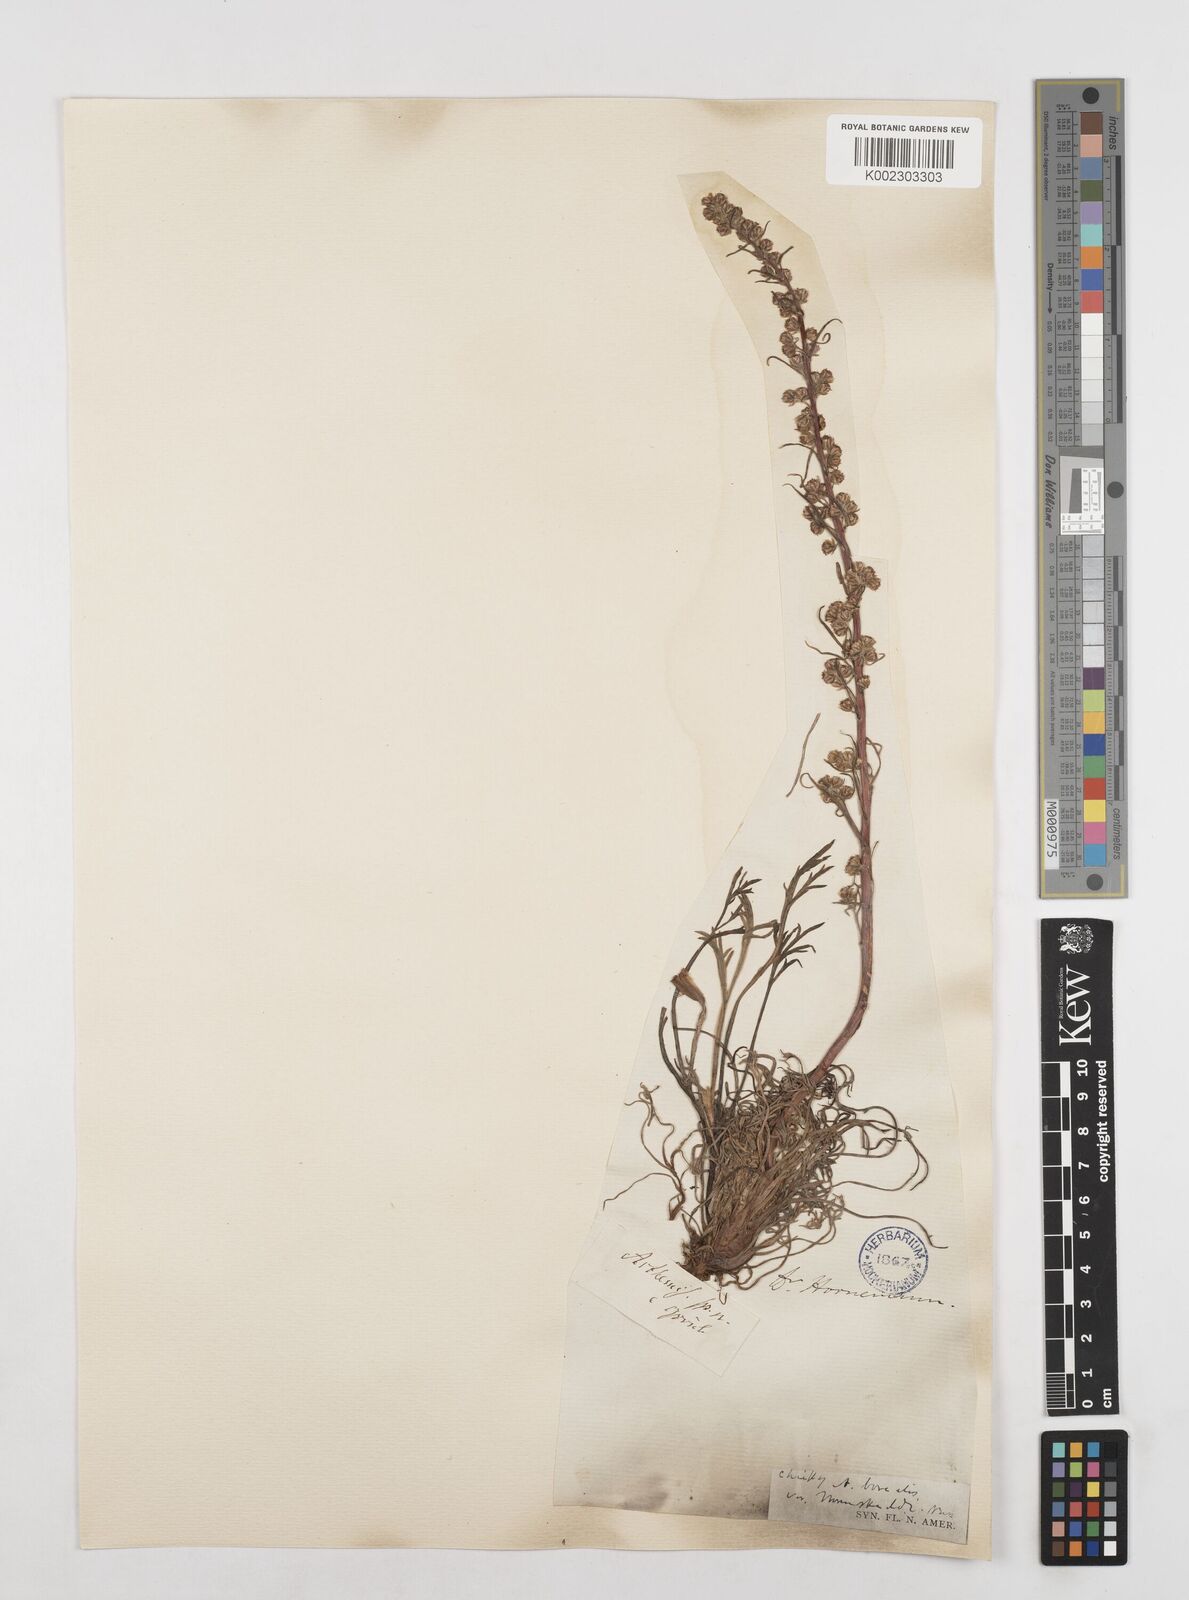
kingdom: Plantae
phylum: Tracheophyta
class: Magnoliopsida
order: Asterales
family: Asteraceae
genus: Artemisia
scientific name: Artemisia
